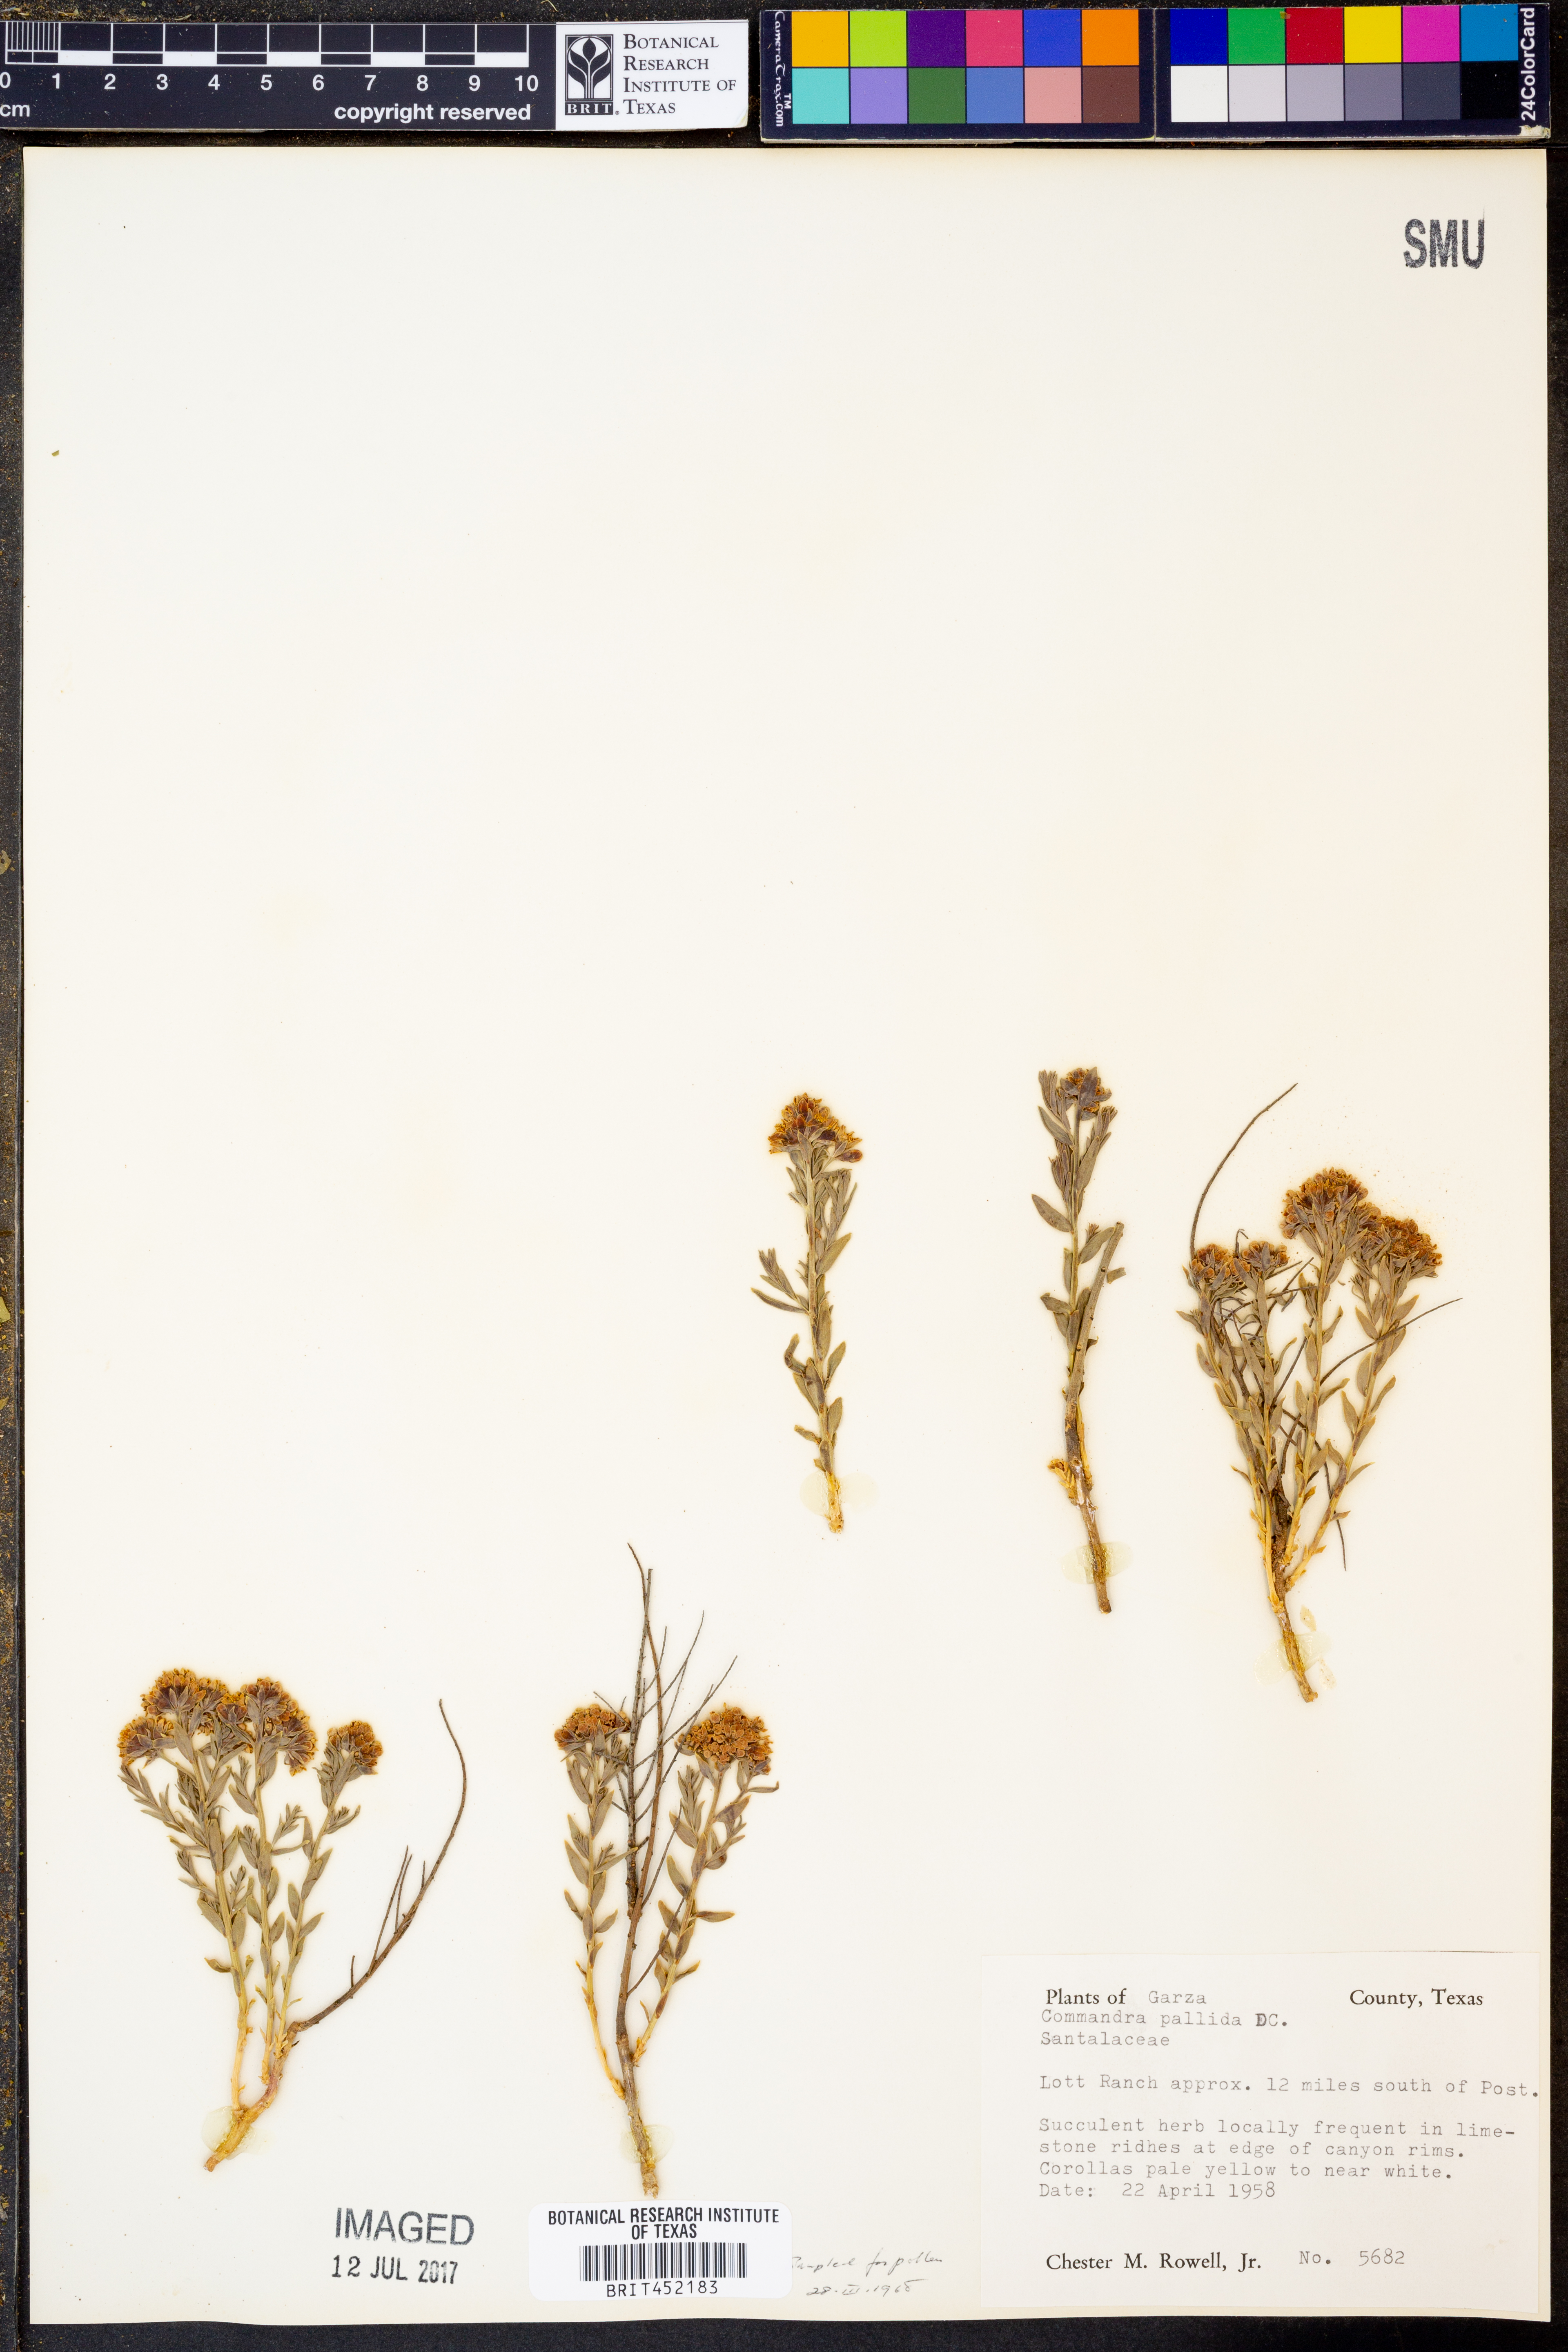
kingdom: Plantae
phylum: Tracheophyta
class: Magnoliopsida
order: Santalales
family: Comandraceae
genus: Comandra
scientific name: Comandra umbellata
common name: Bastard toadflax
